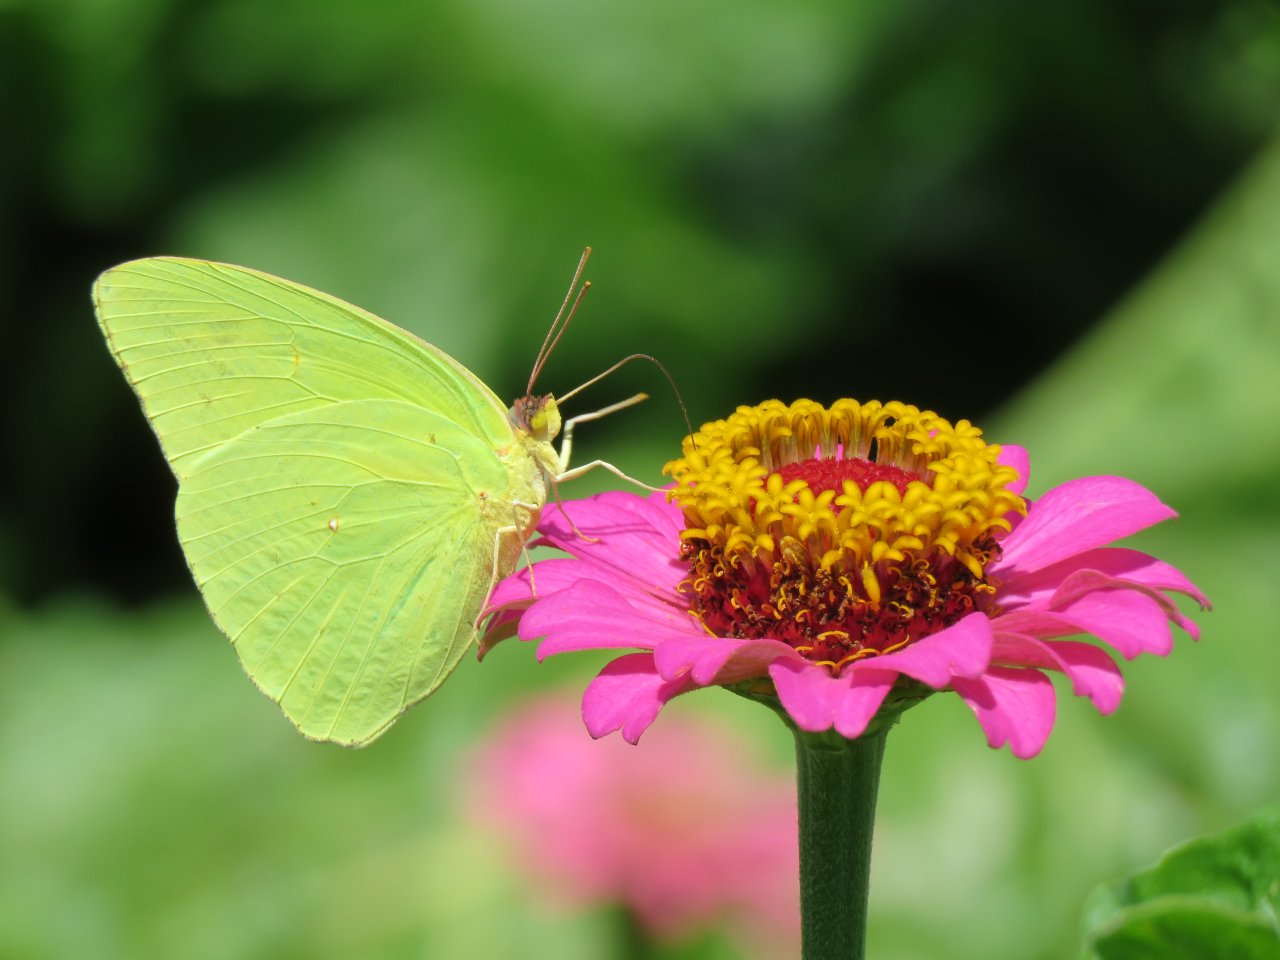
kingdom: Animalia
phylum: Arthropoda
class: Insecta
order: Lepidoptera
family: Pieridae
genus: Phoebis
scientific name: Phoebis sennae
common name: Cloudless Sulphur
